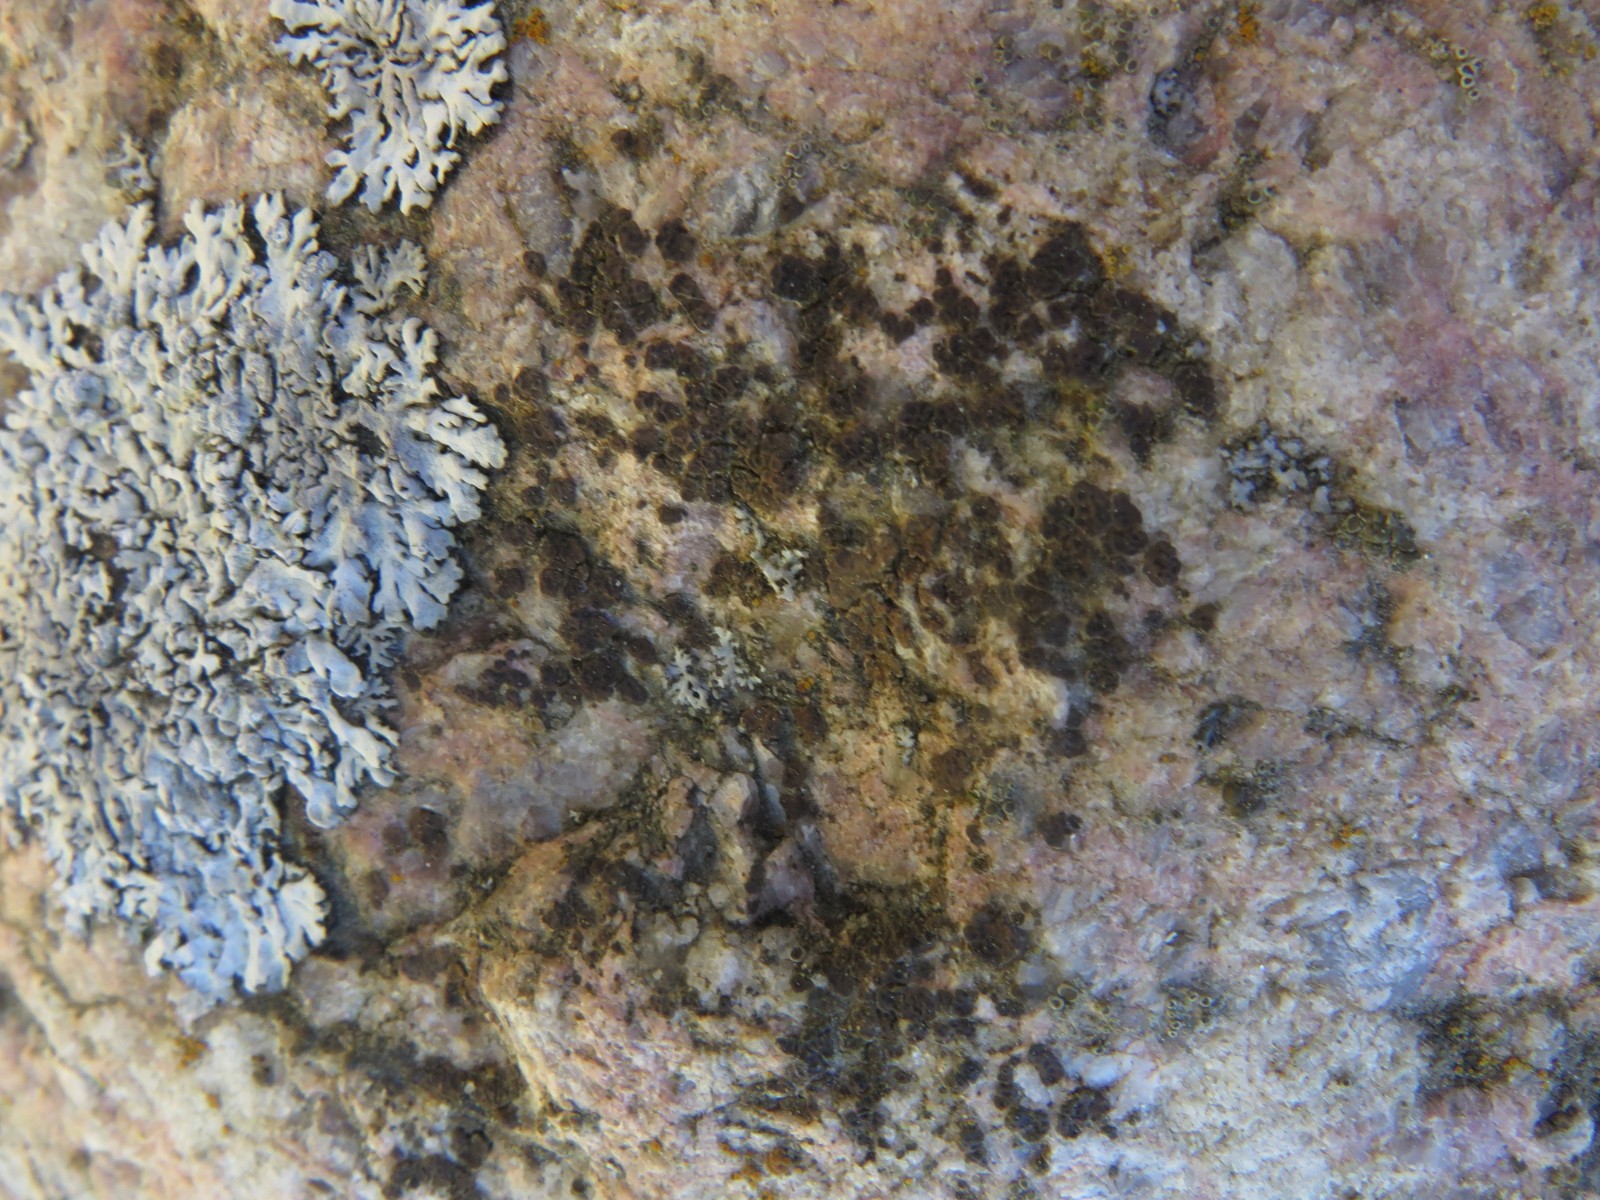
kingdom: Fungi
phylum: Ascomycota
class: Lecanoromycetes
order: Acarosporales
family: Acarosporaceae
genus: Acarospora
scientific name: Acarospora fuscata
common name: brun småsporelav
